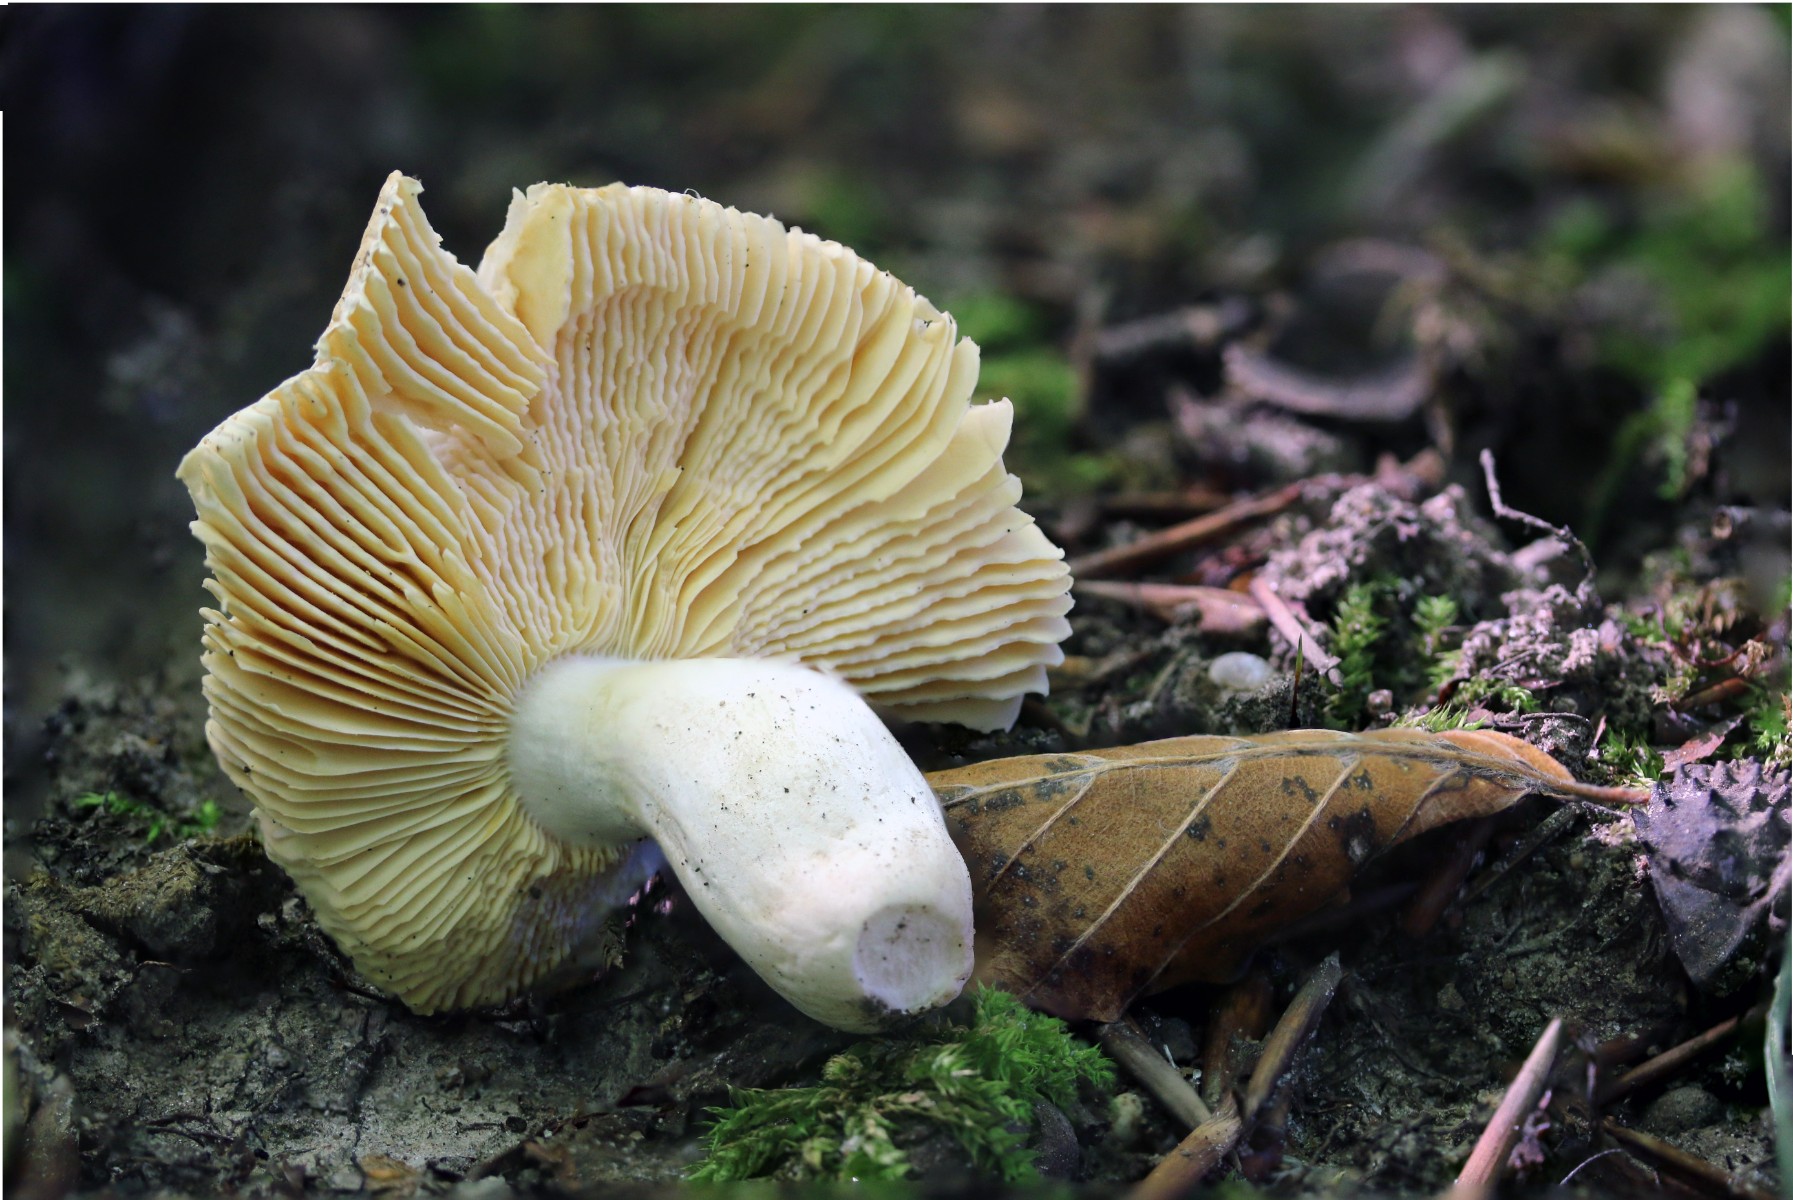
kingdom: Fungi
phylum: Basidiomycota
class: Agaricomycetes
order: Russulales
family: Russulaceae
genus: Russula
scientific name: Russula risigallina
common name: abrikos-skørhat
